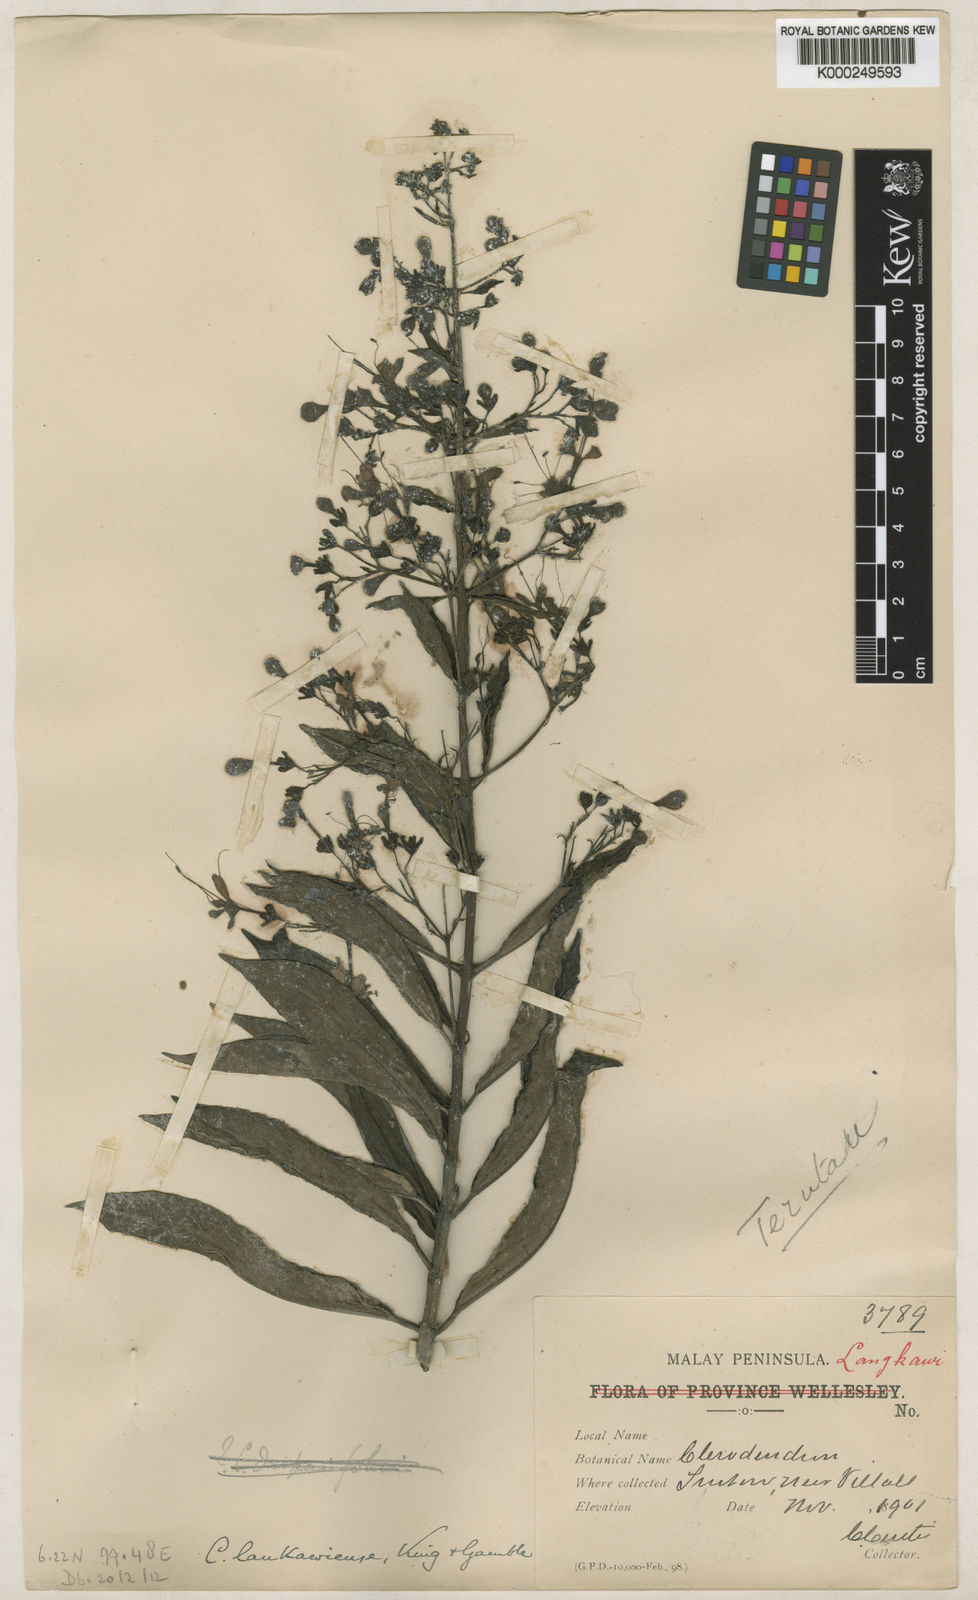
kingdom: Plantae
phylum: Tracheophyta
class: Magnoliopsida
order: Lamiales
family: Lamiaceae
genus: Clerodendrum
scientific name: Clerodendrum lankawiense
